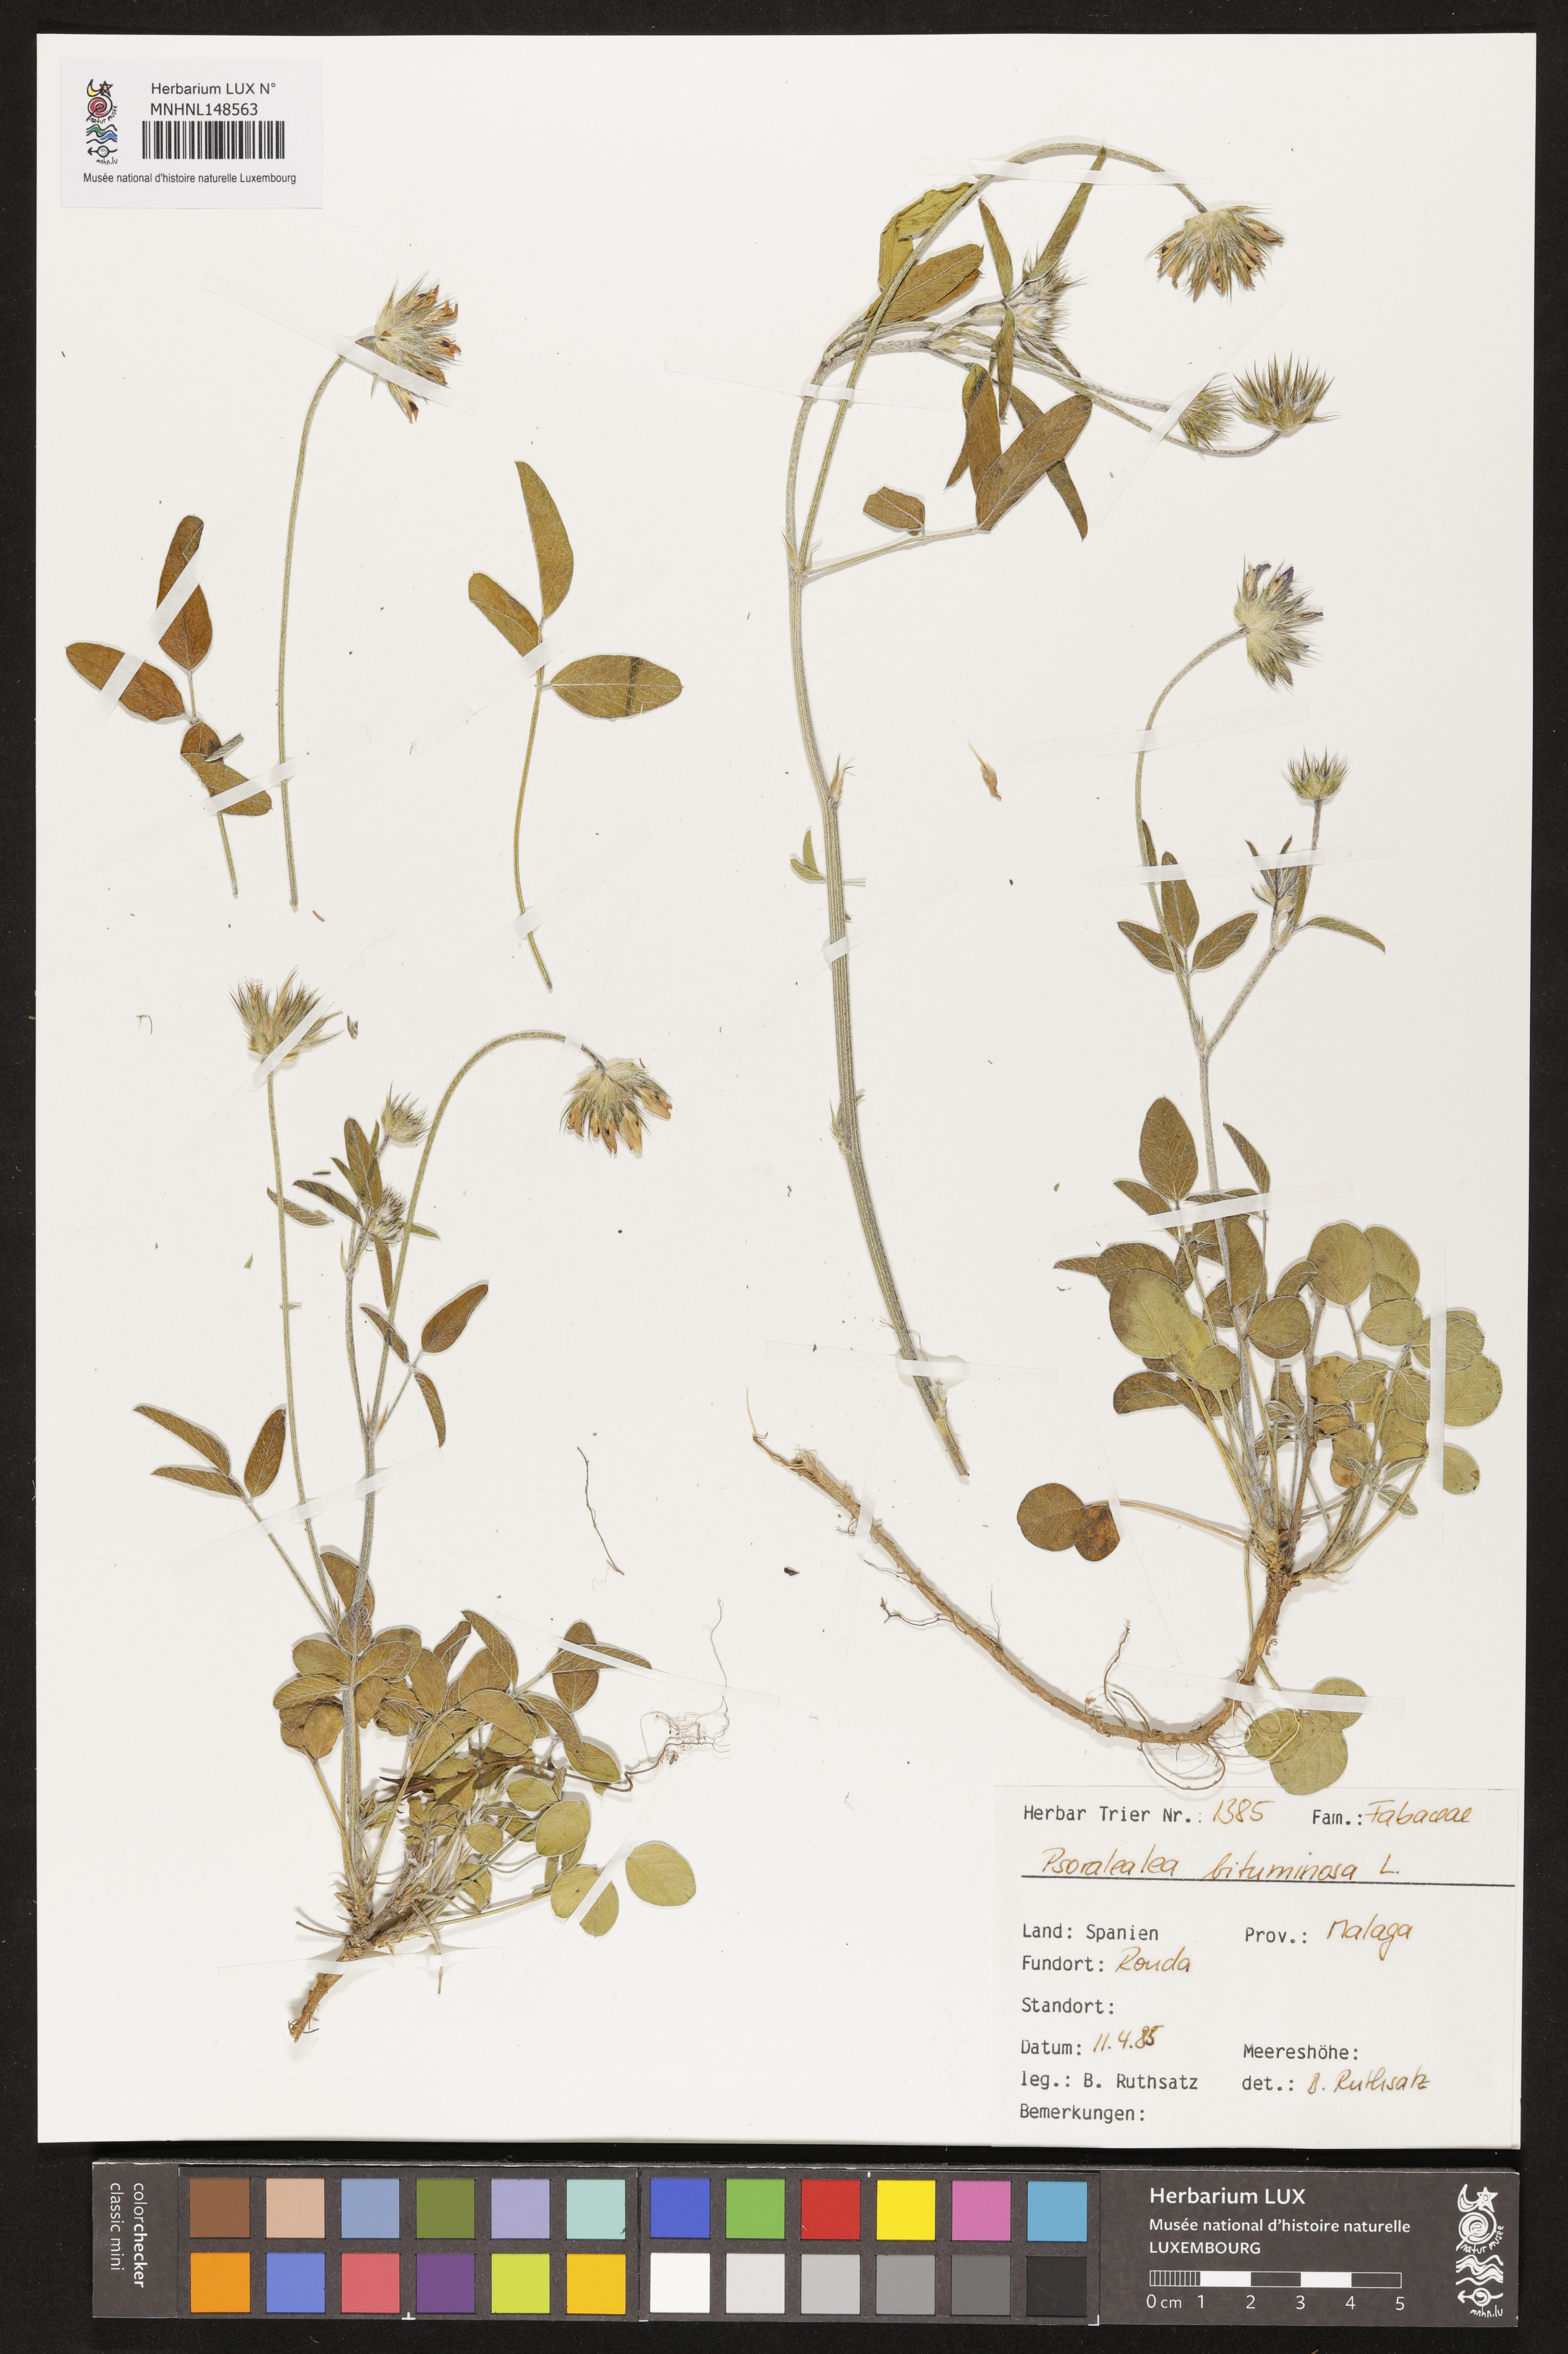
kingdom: Plantae
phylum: Tracheophyta
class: Magnoliopsida
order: Fabales
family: Fabaceae
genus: Bituminaria
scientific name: Bituminaria bituminosa
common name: Arabian pea
